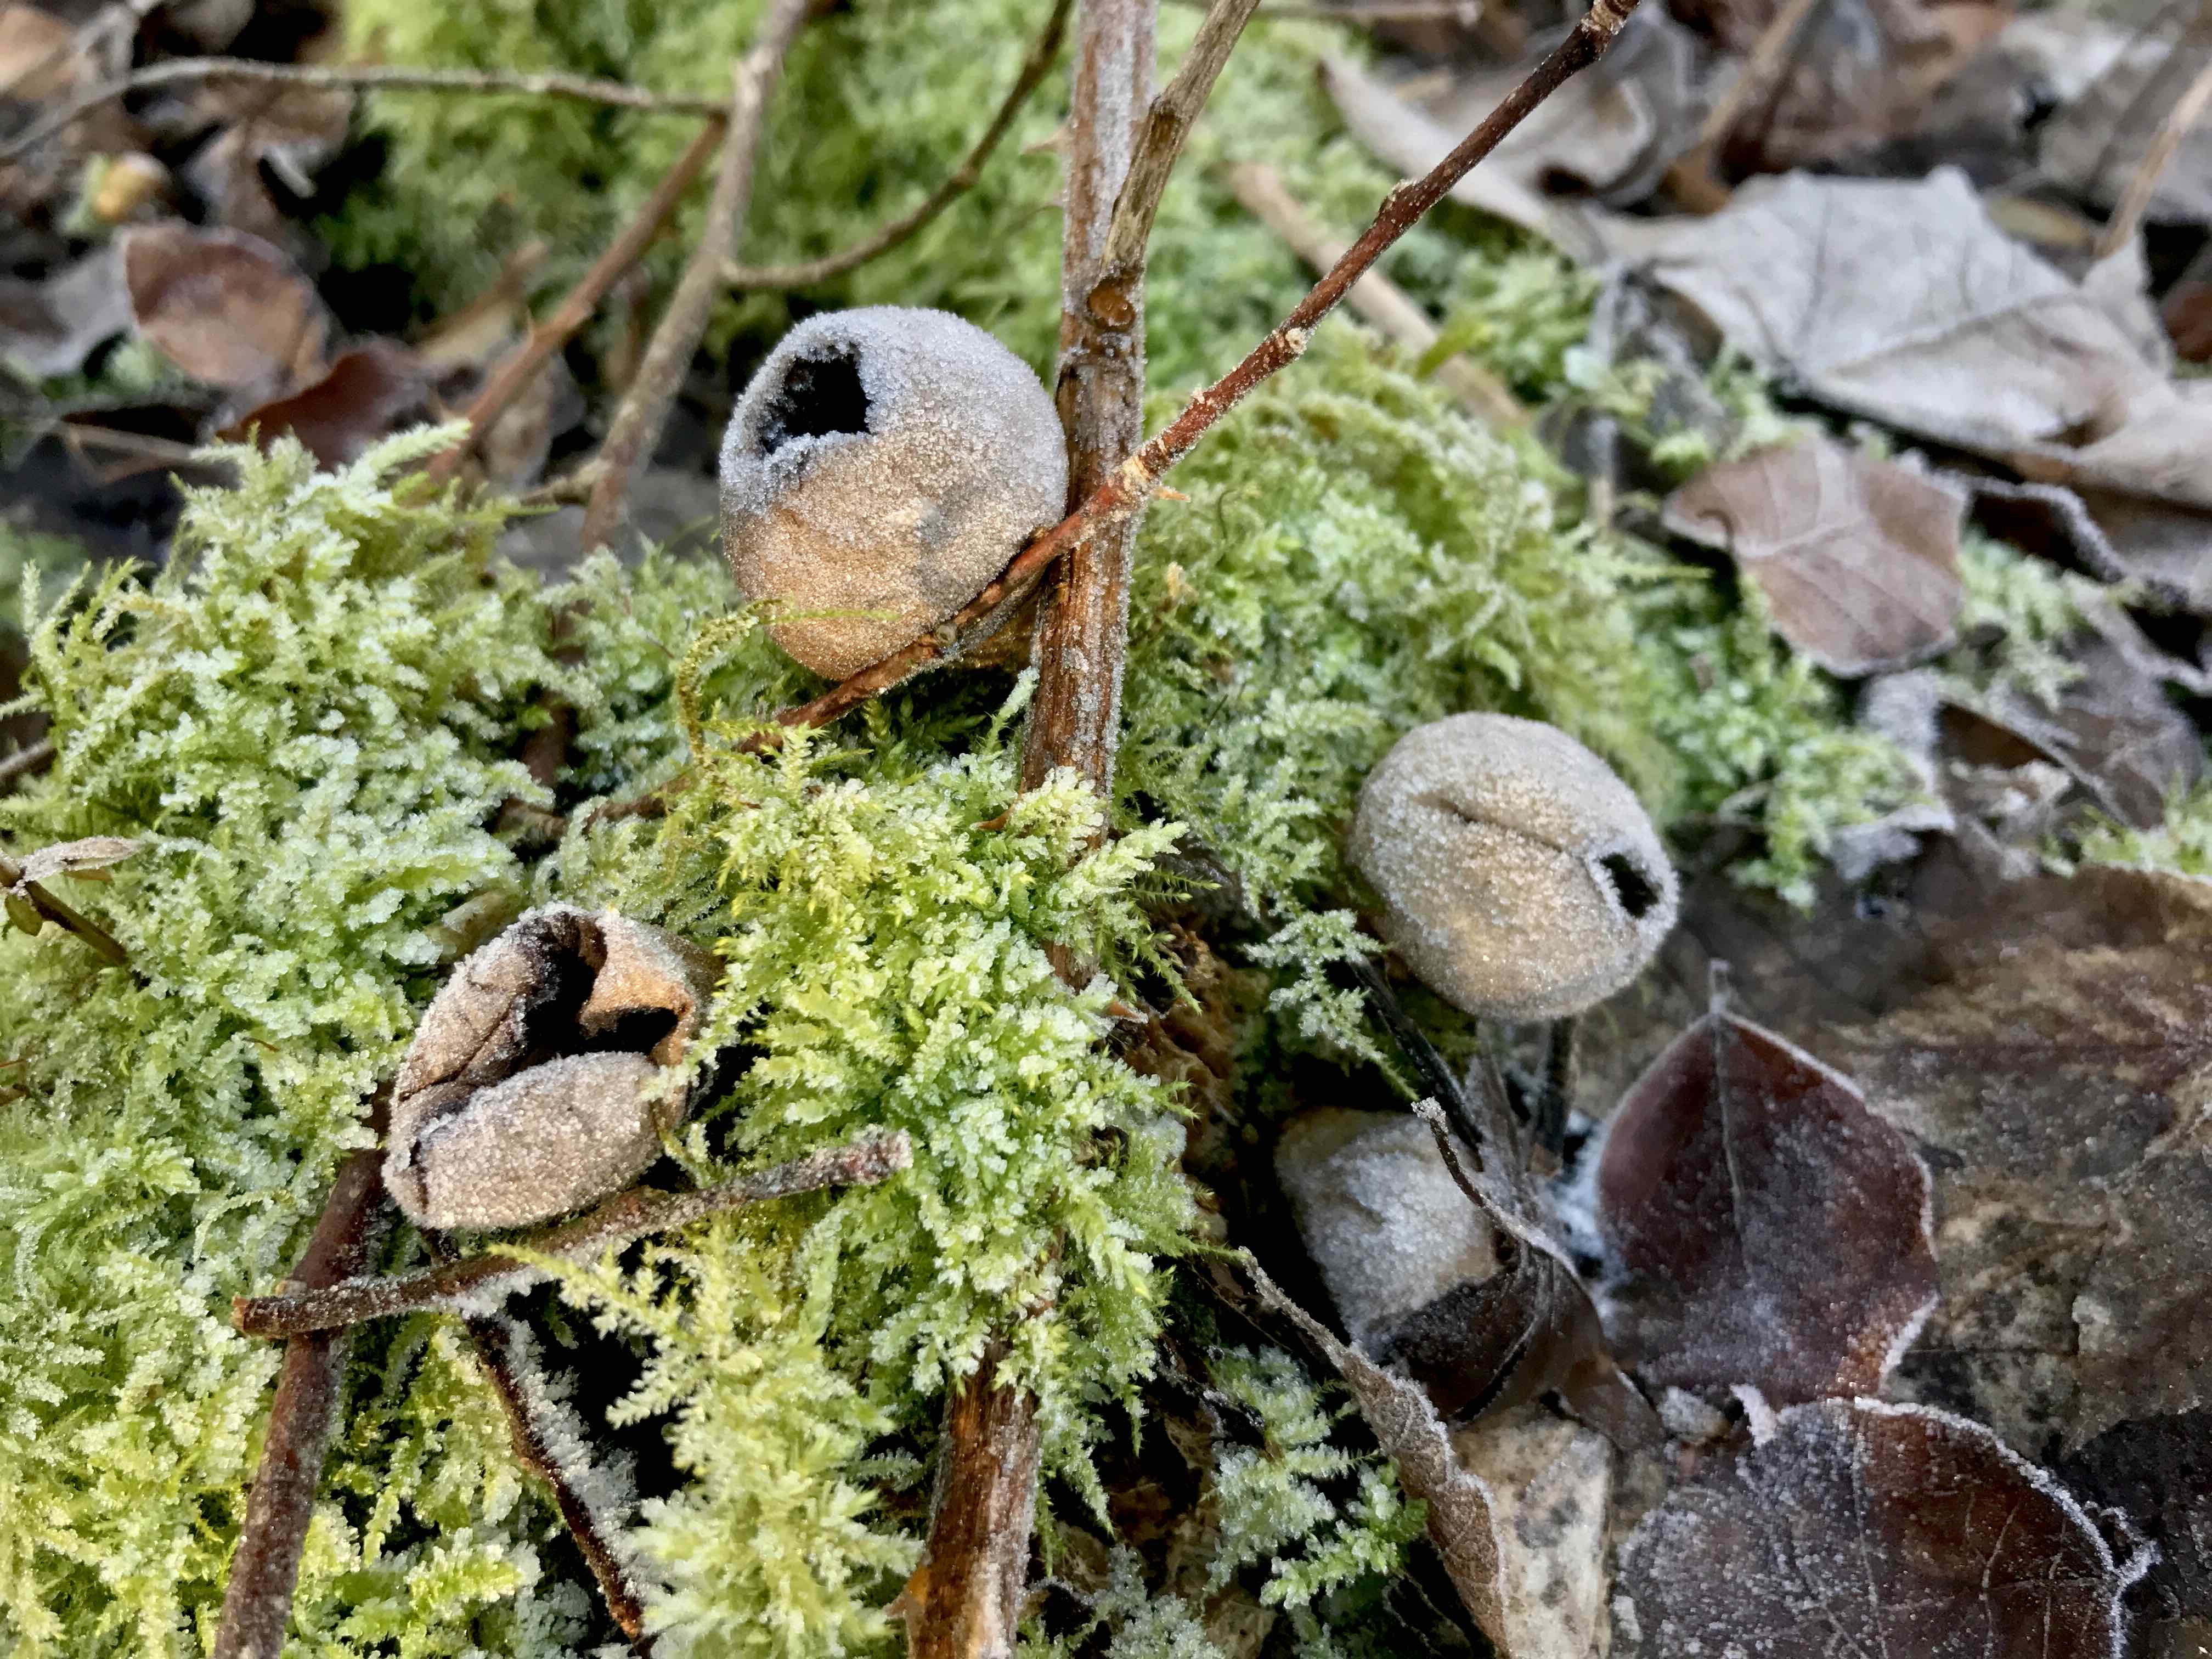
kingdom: Fungi
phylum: Basidiomycota
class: Agaricomycetes
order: Agaricales
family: Lycoperdaceae
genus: Apioperdon
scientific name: Apioperdon pyriforme
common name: pære-støvbold
